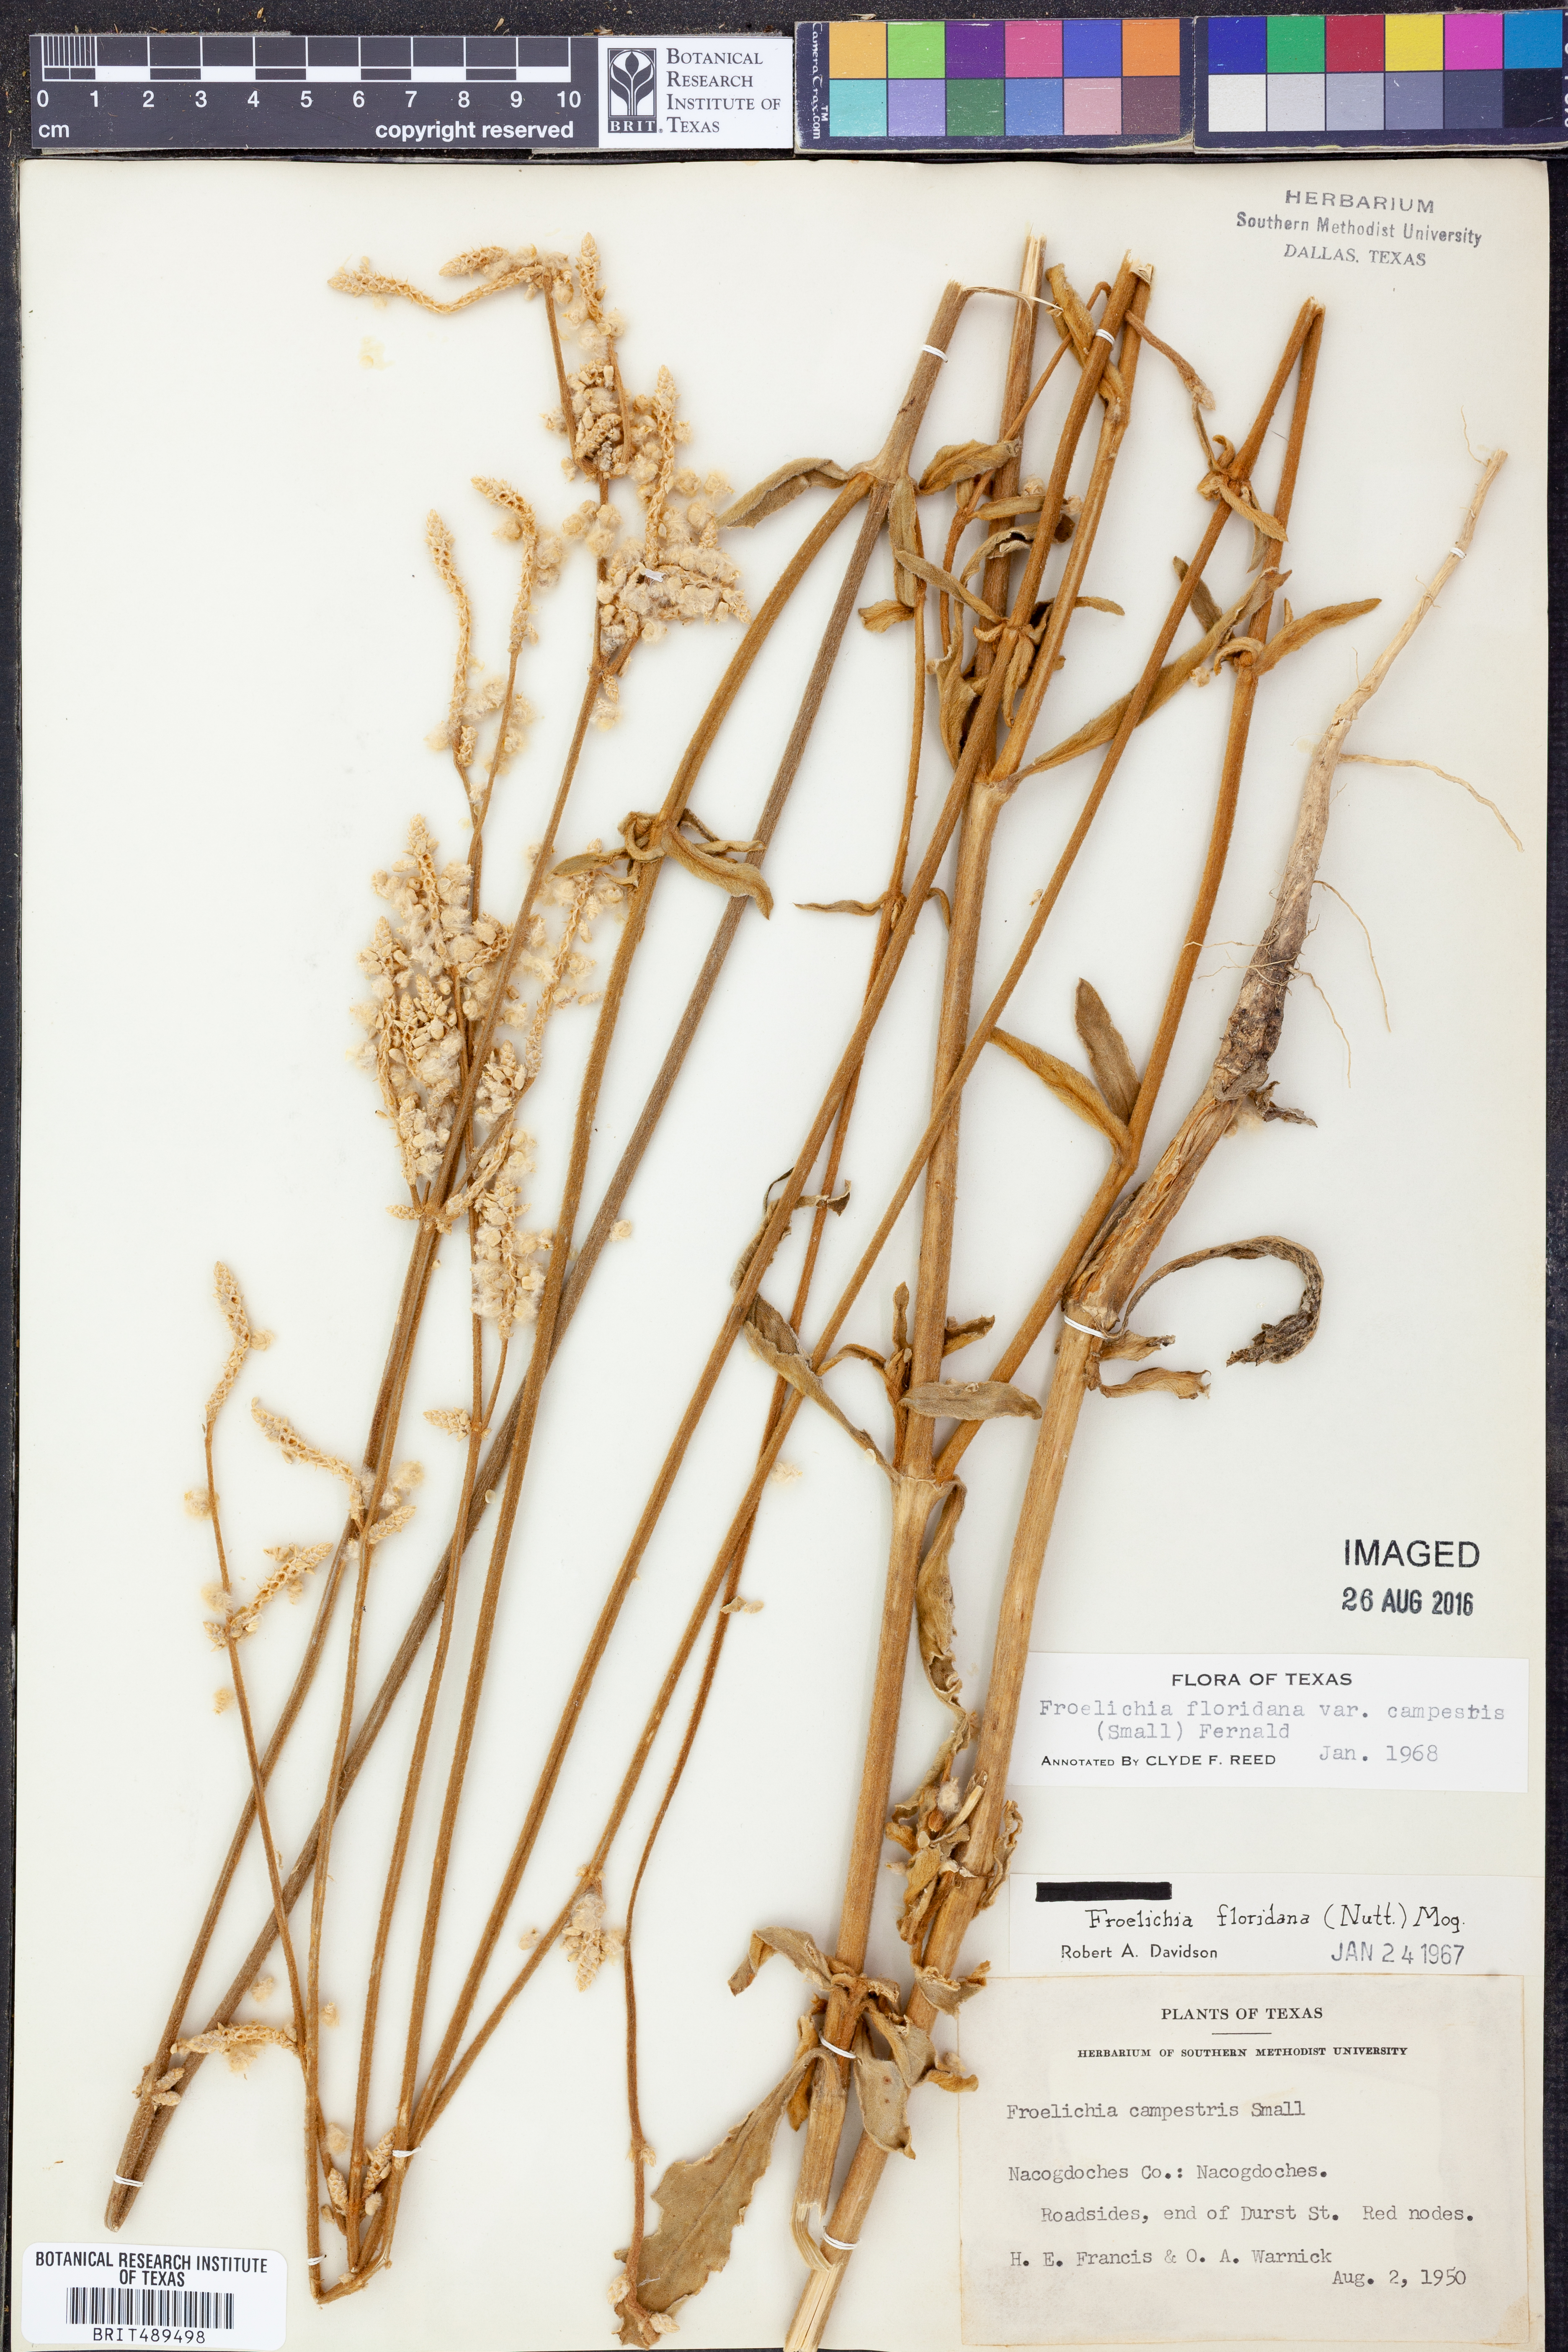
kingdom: Plantae
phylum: Tracheophyta
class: Magnoliopsida
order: Caryophyllales
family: Amaranthaceae
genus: Froelichia
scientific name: Froelichia floridana
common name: Florida snake-cotton
